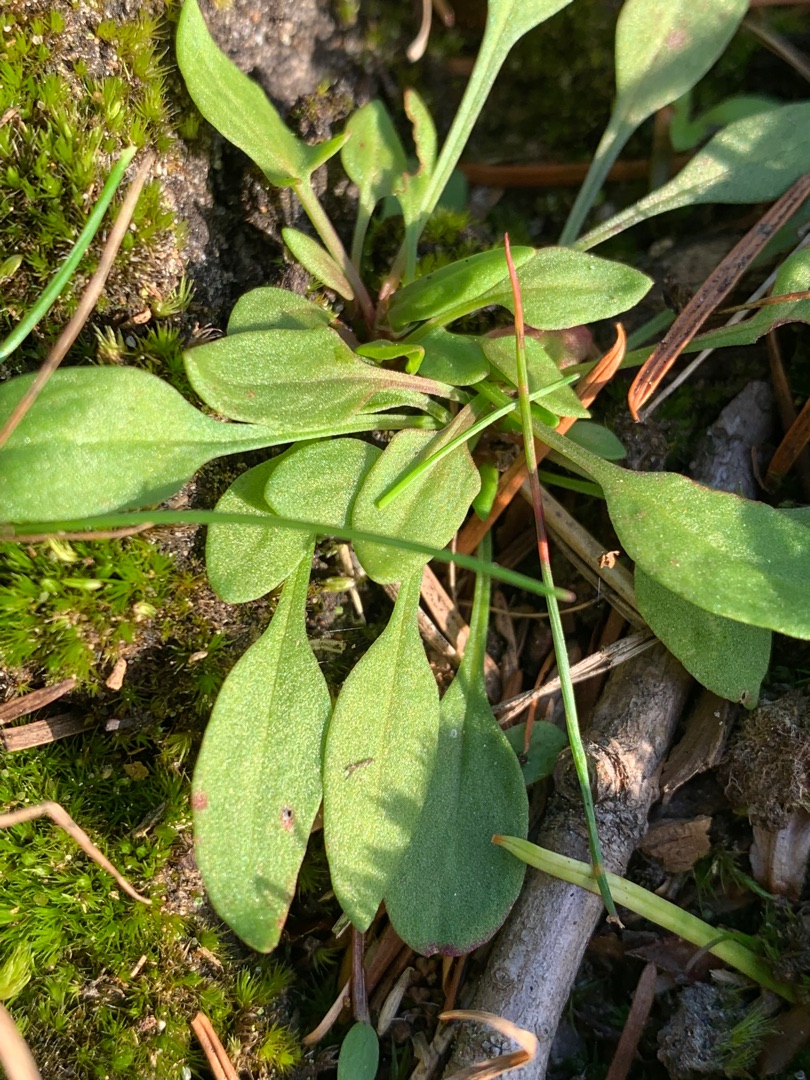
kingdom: Plantae
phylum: Tracheophyta
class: Magnoliopsida
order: Caryophyllales
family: Polygonaceae
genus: Rumex
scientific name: Rumex acetosella
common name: Rødknæ
